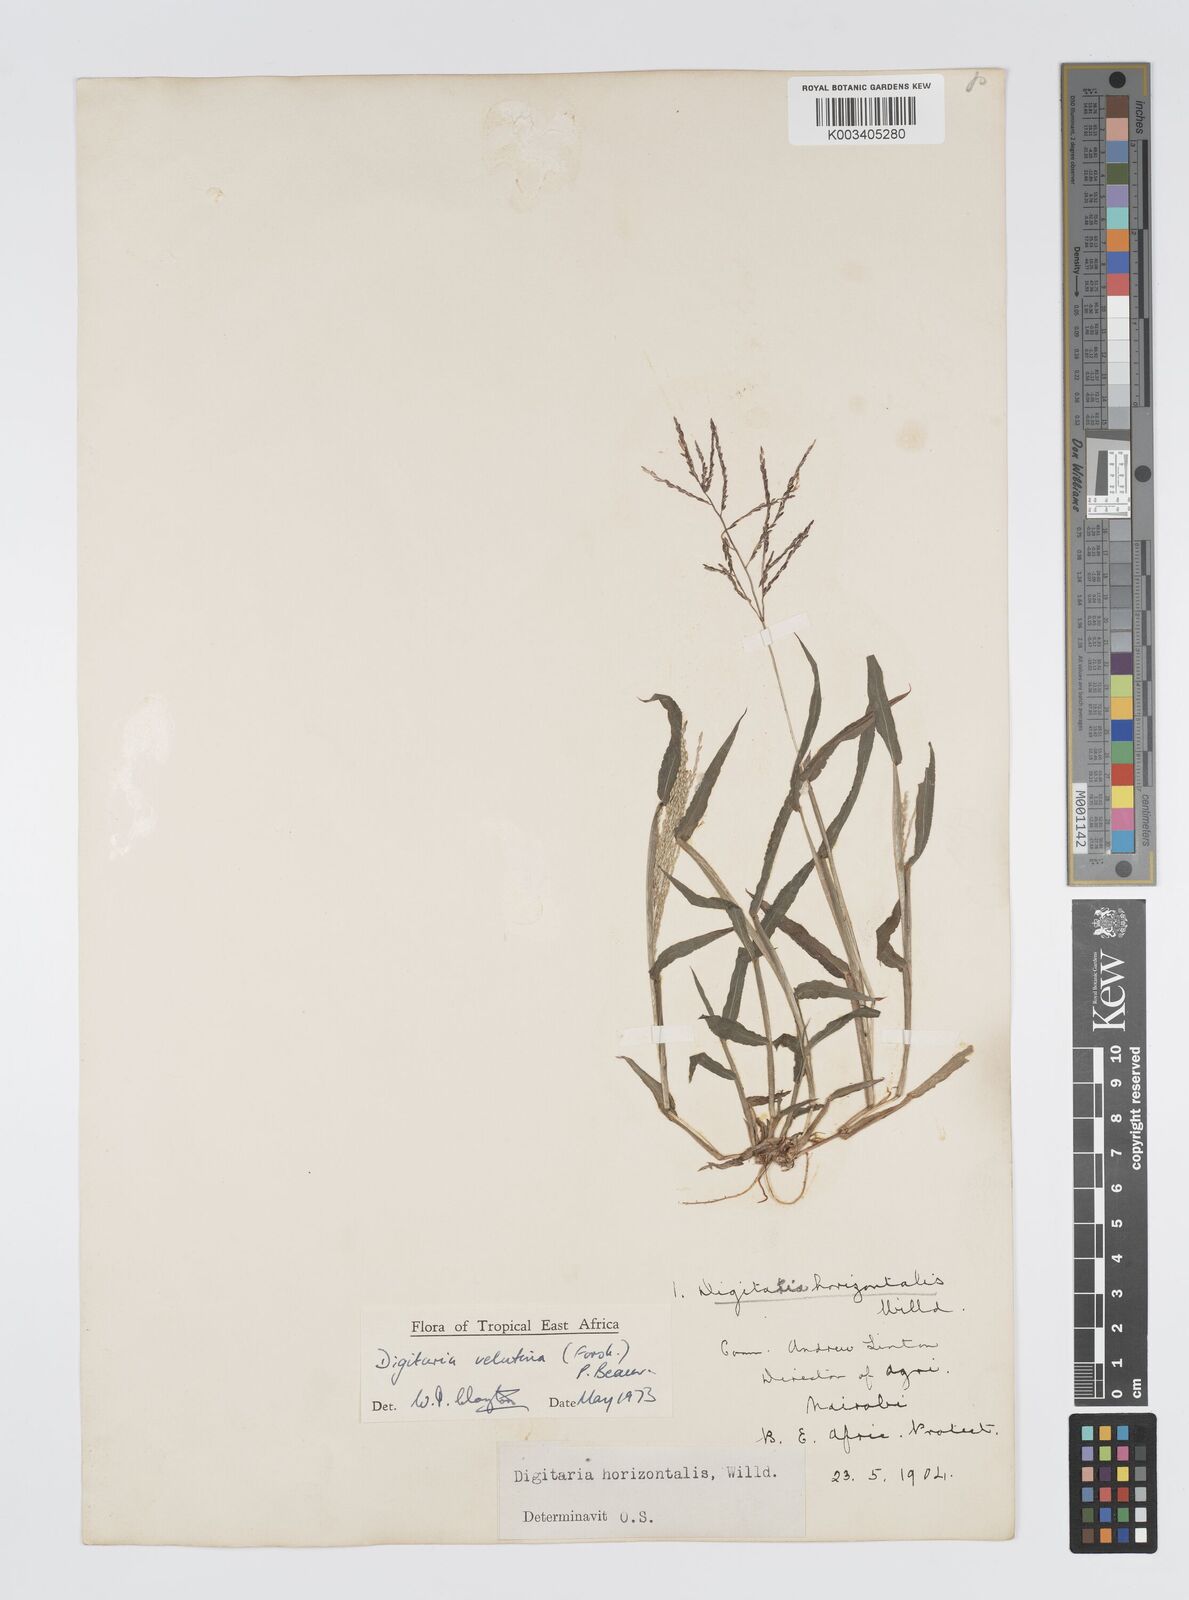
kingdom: Plantae
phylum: Tracheophyta
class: Liliopsida
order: Poales
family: Poaceae
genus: Digitaria
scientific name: Digitaria velutina
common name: Long-plume finger grass
